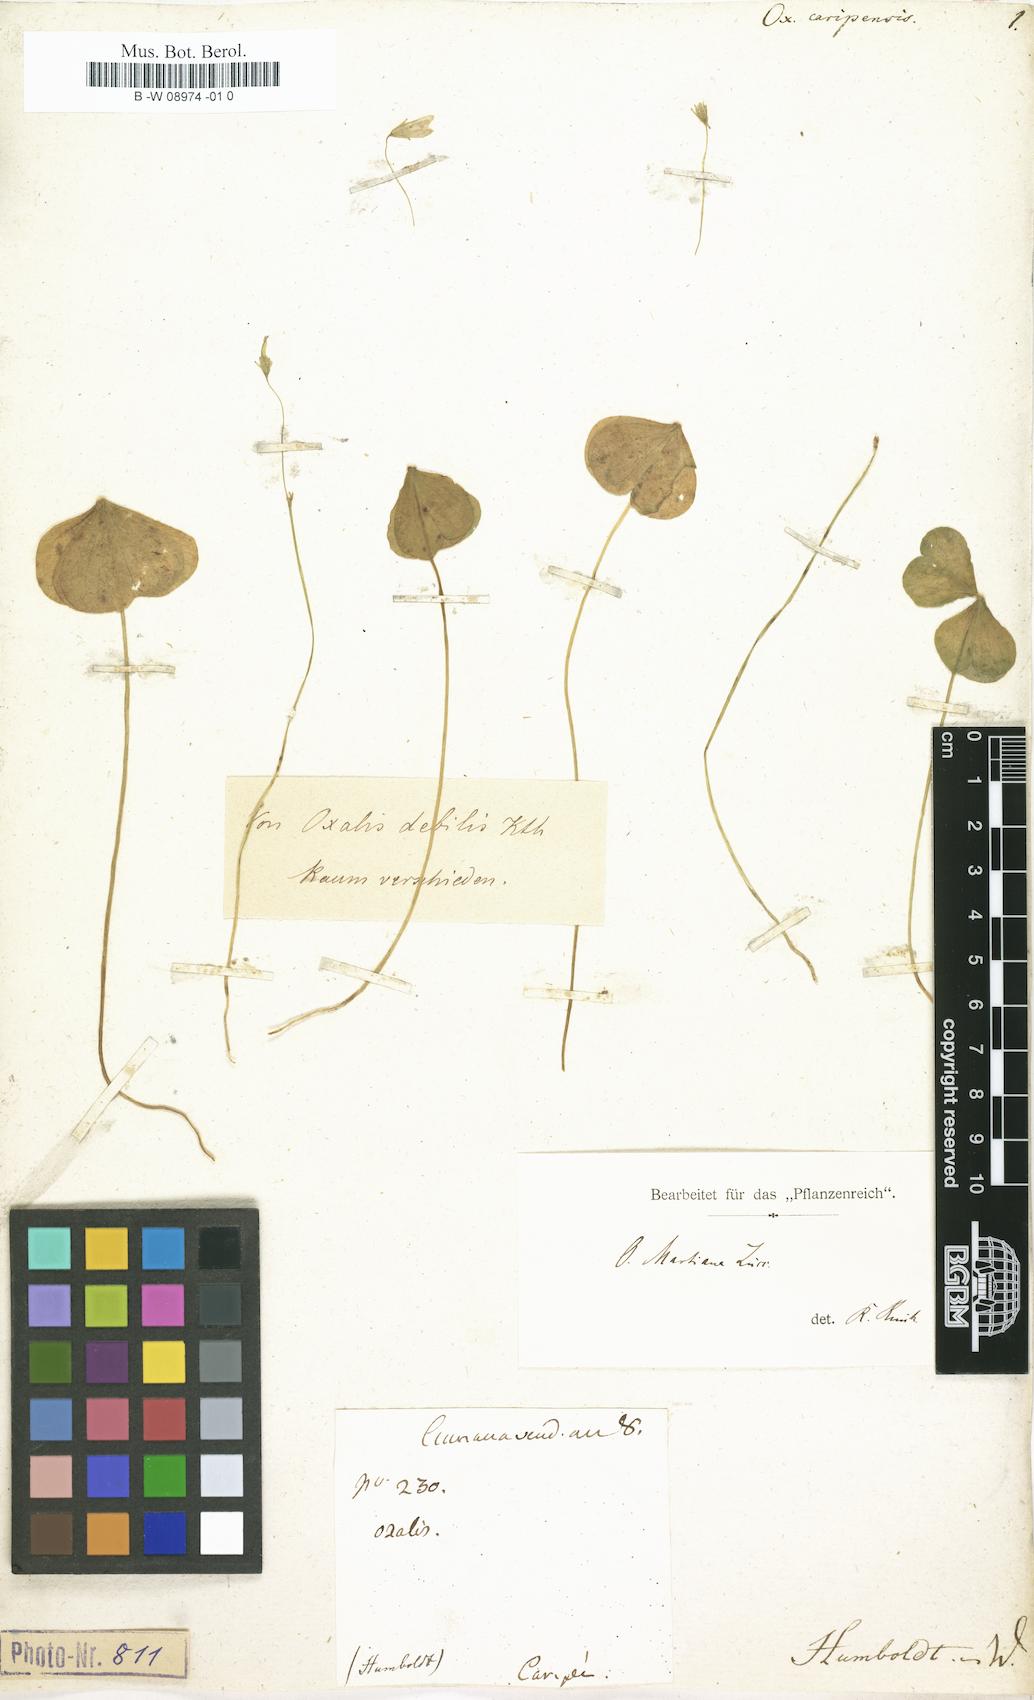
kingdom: Plantae
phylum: Tracheophyta
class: Magnoliopsida
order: Oxalidales
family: Oxalidaceae
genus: Oxalis
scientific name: Oxalis debilis
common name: Large-flowered pink-sorrel
